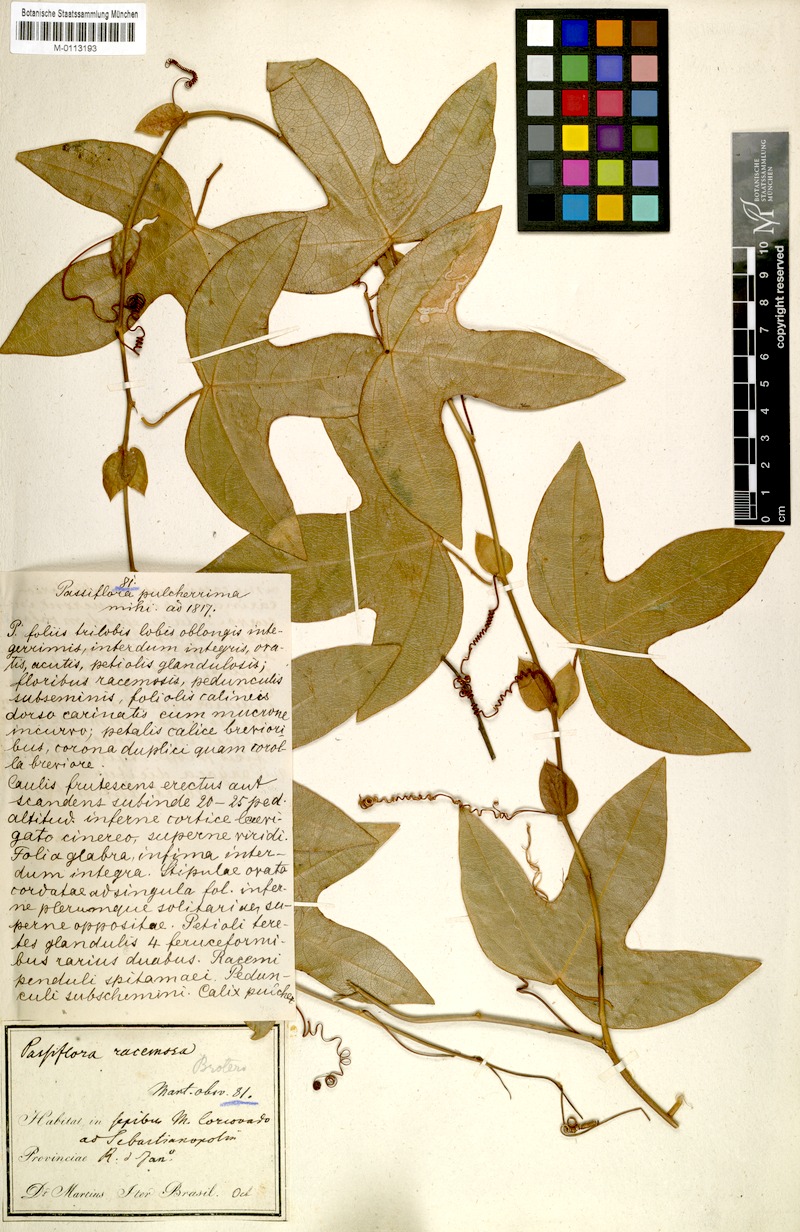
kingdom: Plantae
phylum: Tracheophyta
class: Magnoliopsida
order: Malpighiales
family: Passifloraceae
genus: Passiflora
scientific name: Passiflora racemosa
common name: Red passionflower
